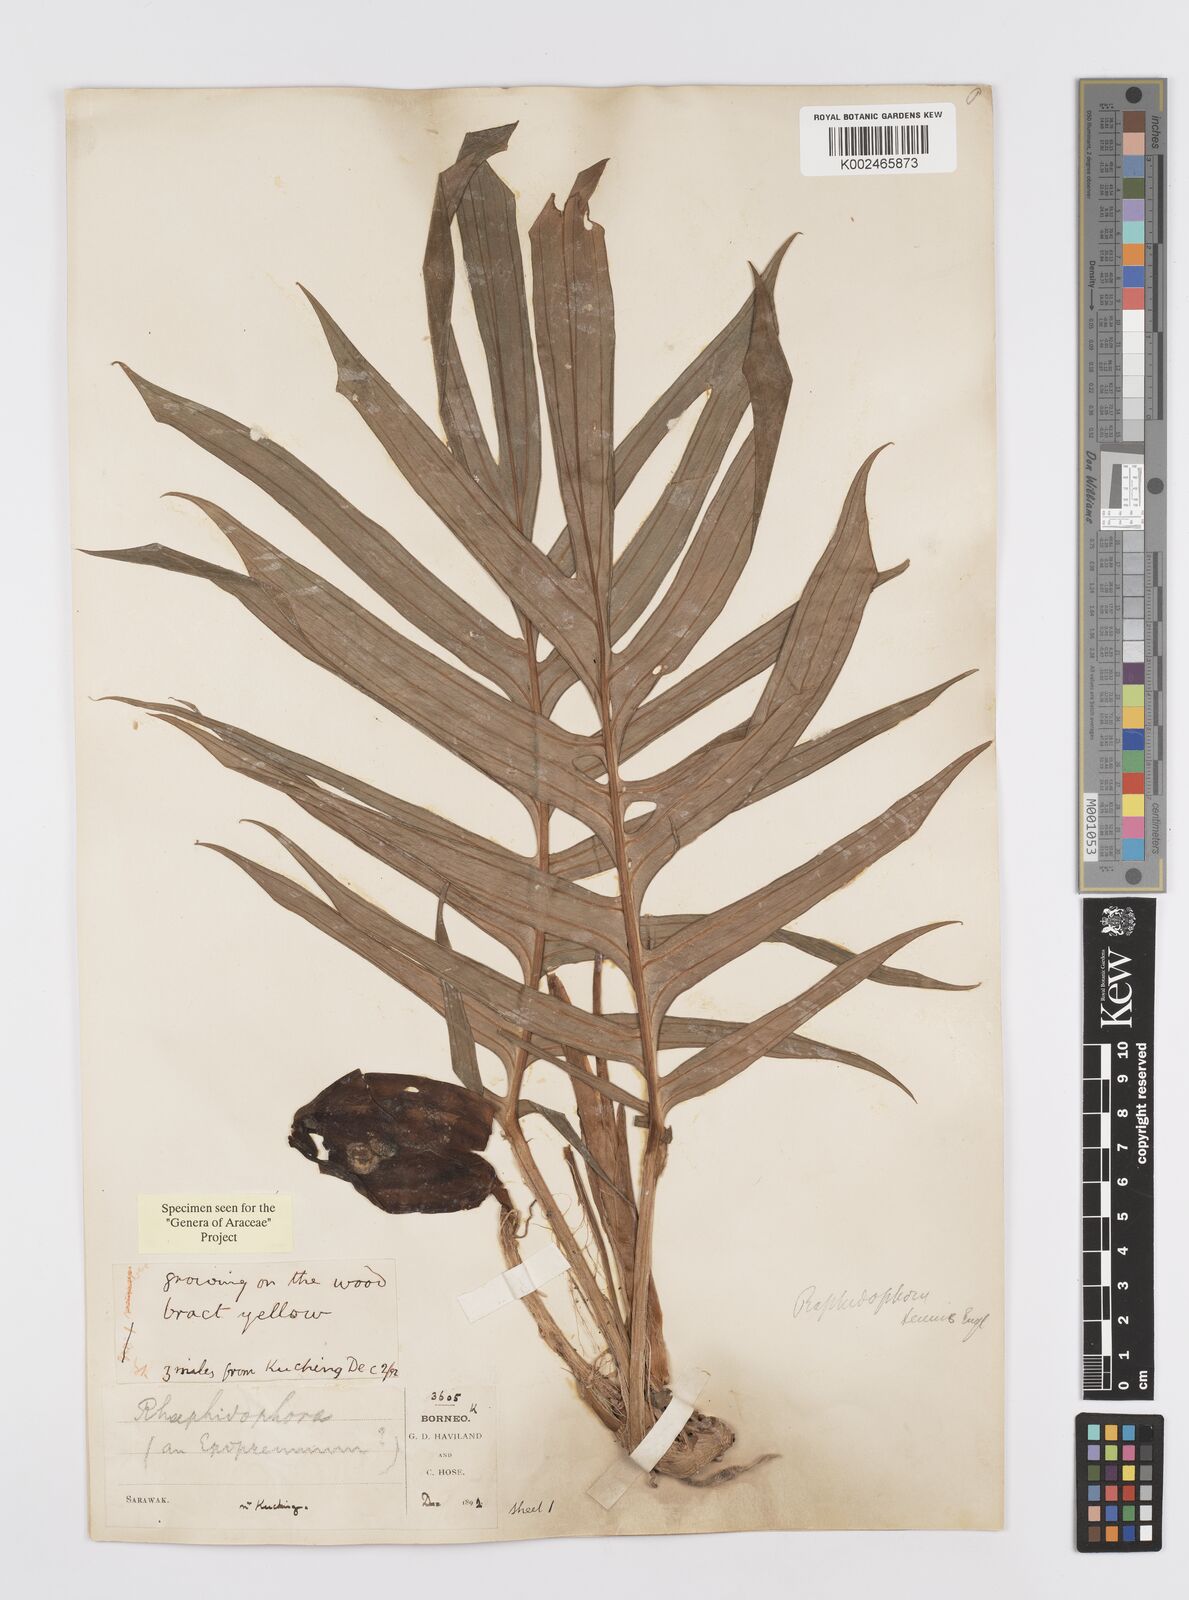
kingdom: Plantae
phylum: Tracheophyta
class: Liliopsida
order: Alismatales
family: Araceae
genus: Rhaphidophora
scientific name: Rhaphidophora korthalsii
